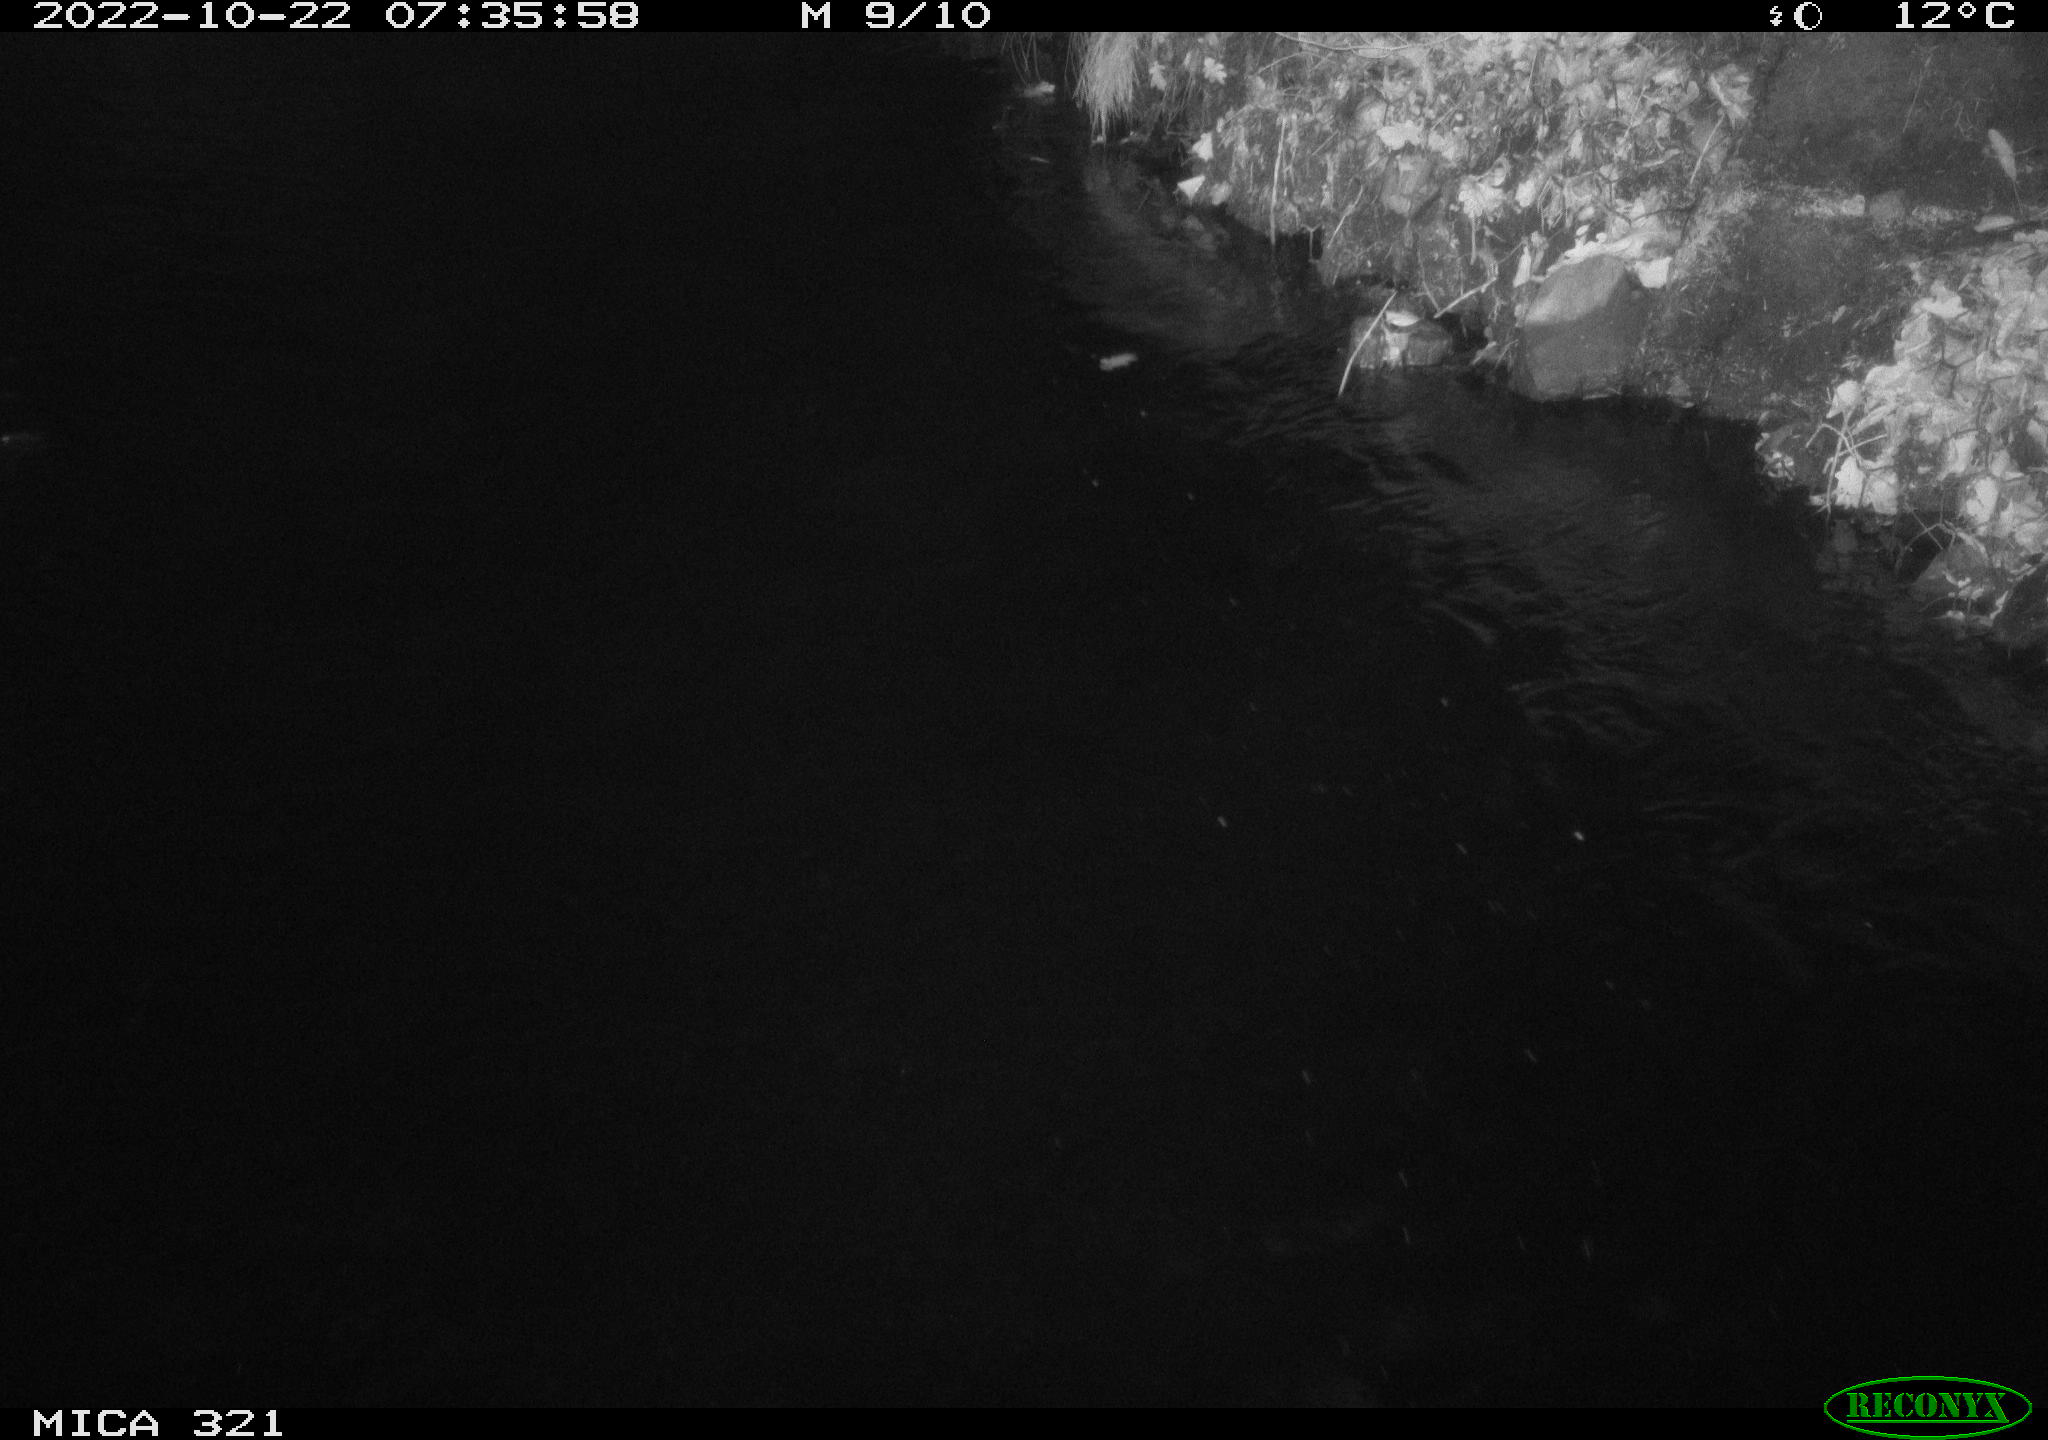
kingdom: Animalia
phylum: Chordata
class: Mammalia
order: Rodentia
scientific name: Rodentia
